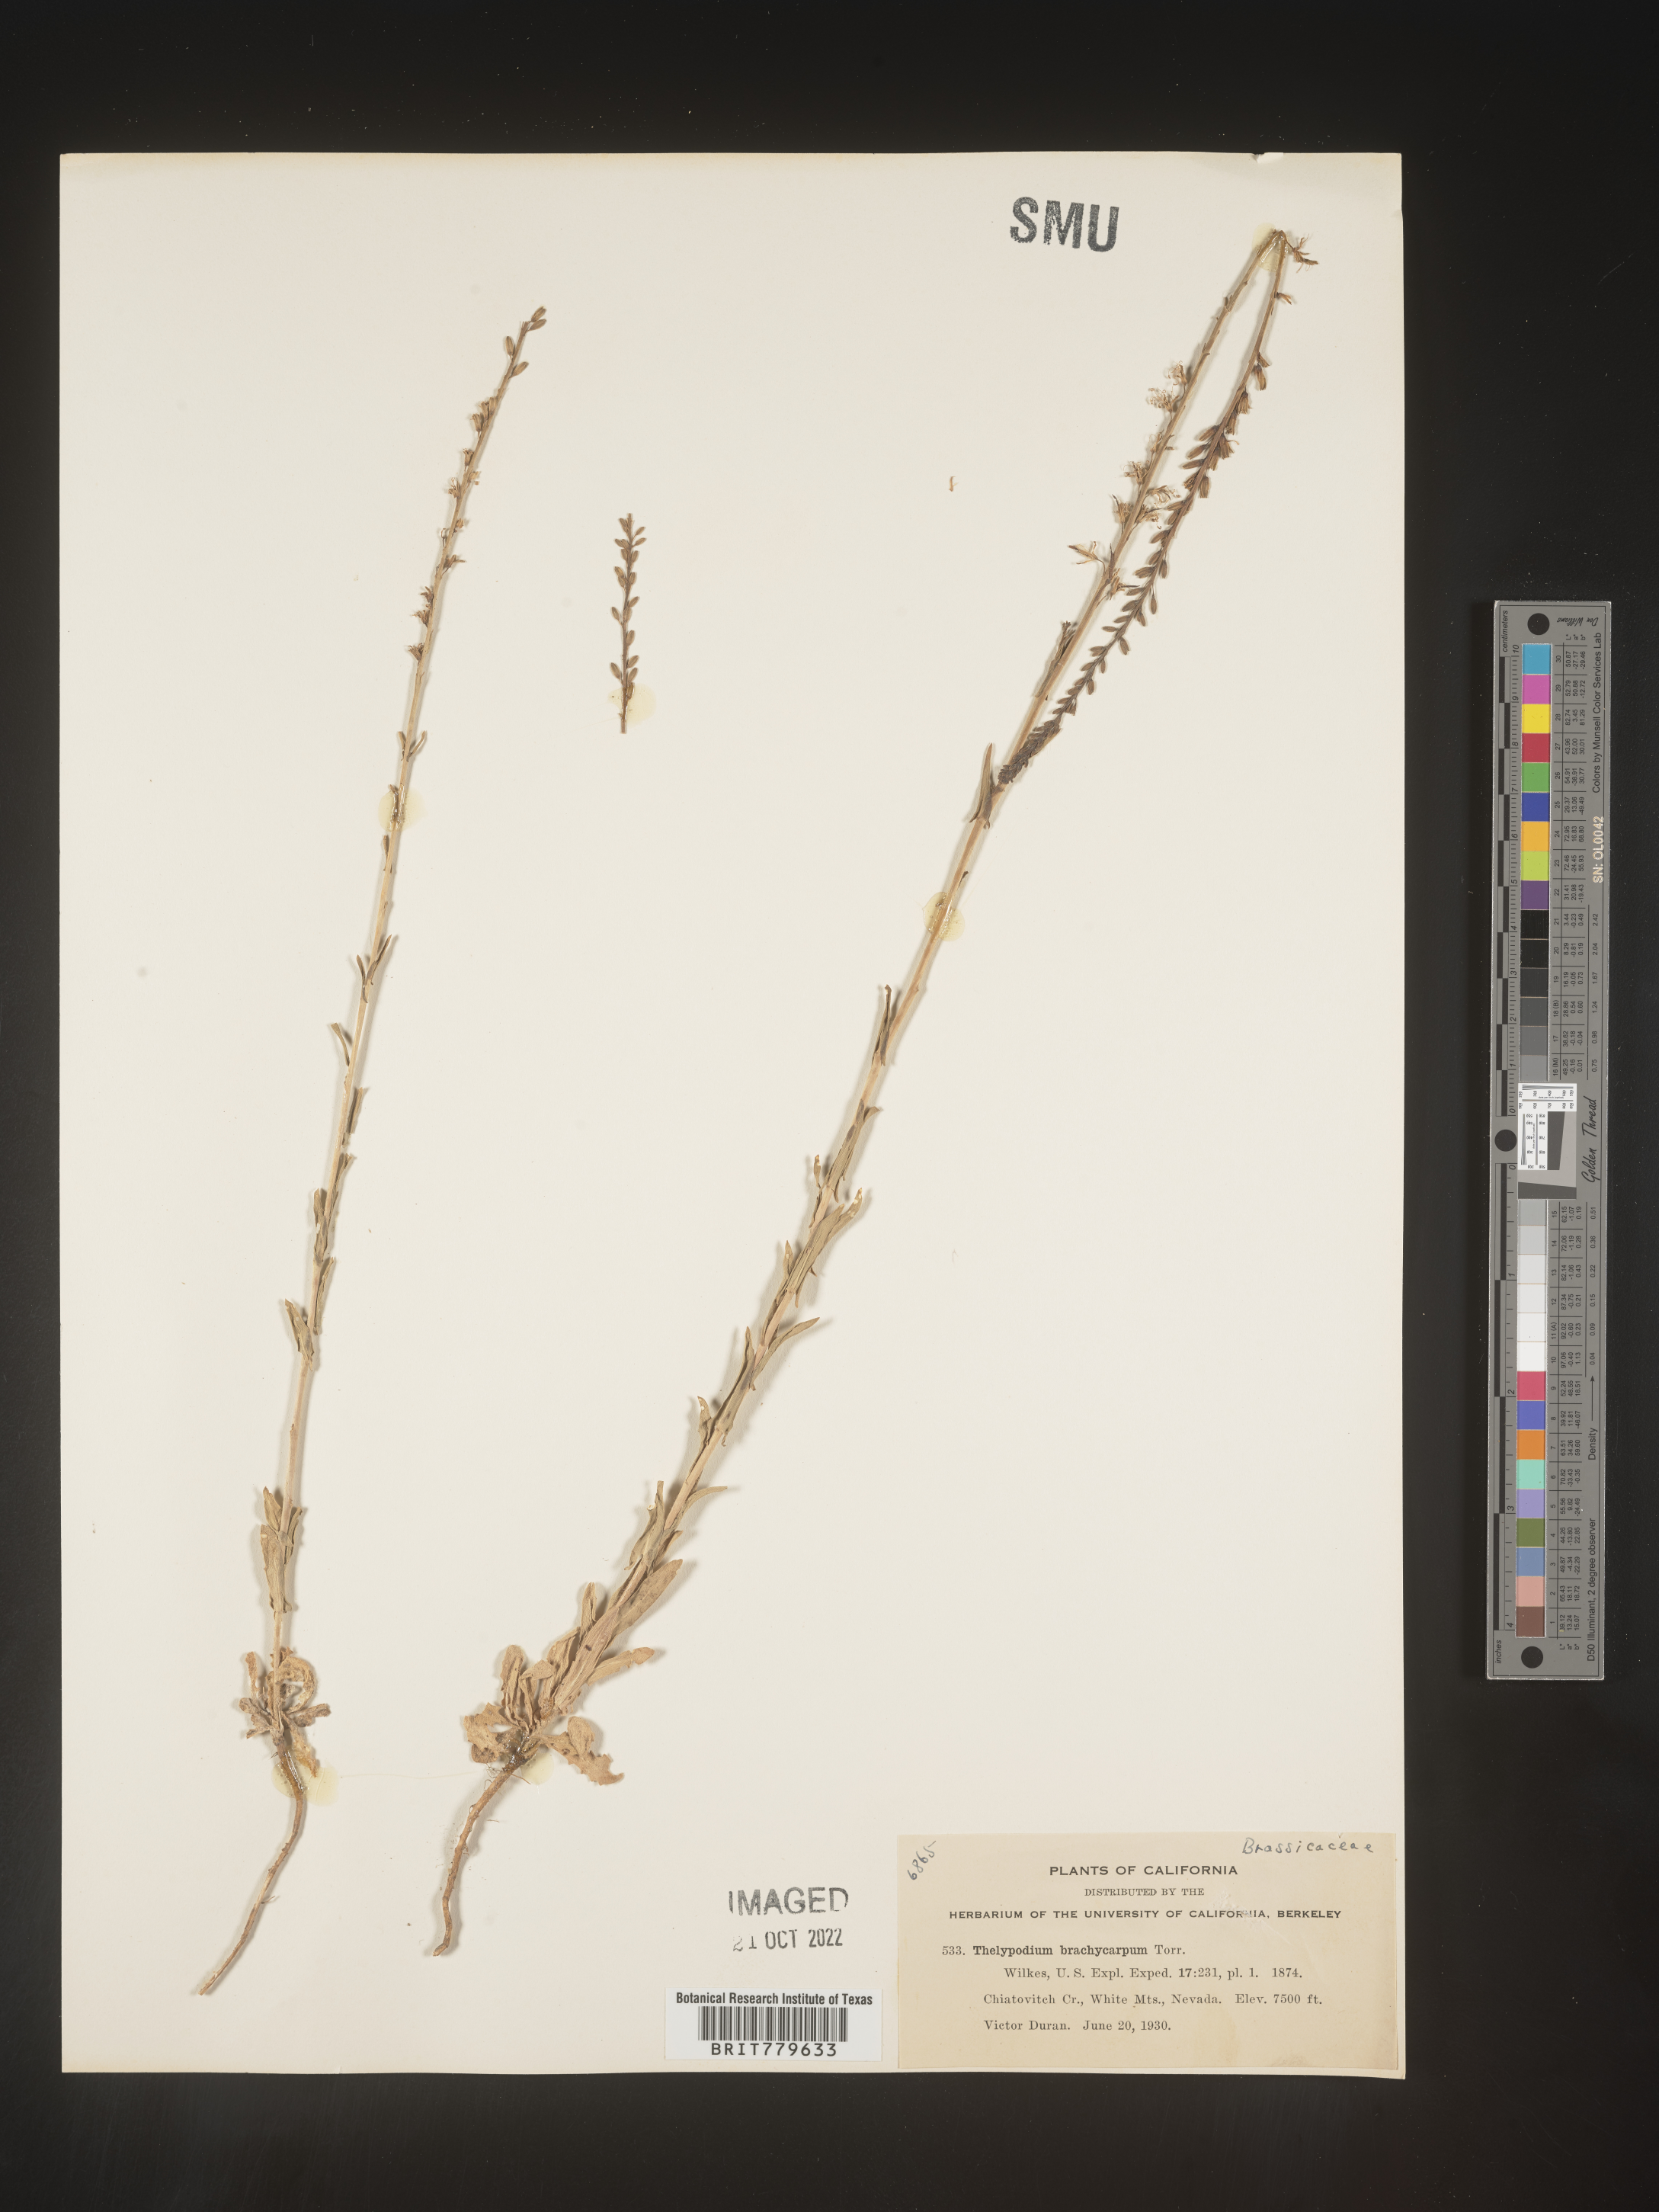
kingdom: Plantae
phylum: Tracheophyta
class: Magnoliopsida
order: Brassicales
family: Brassicaceae
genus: Thelypodium
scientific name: Thelypodium
